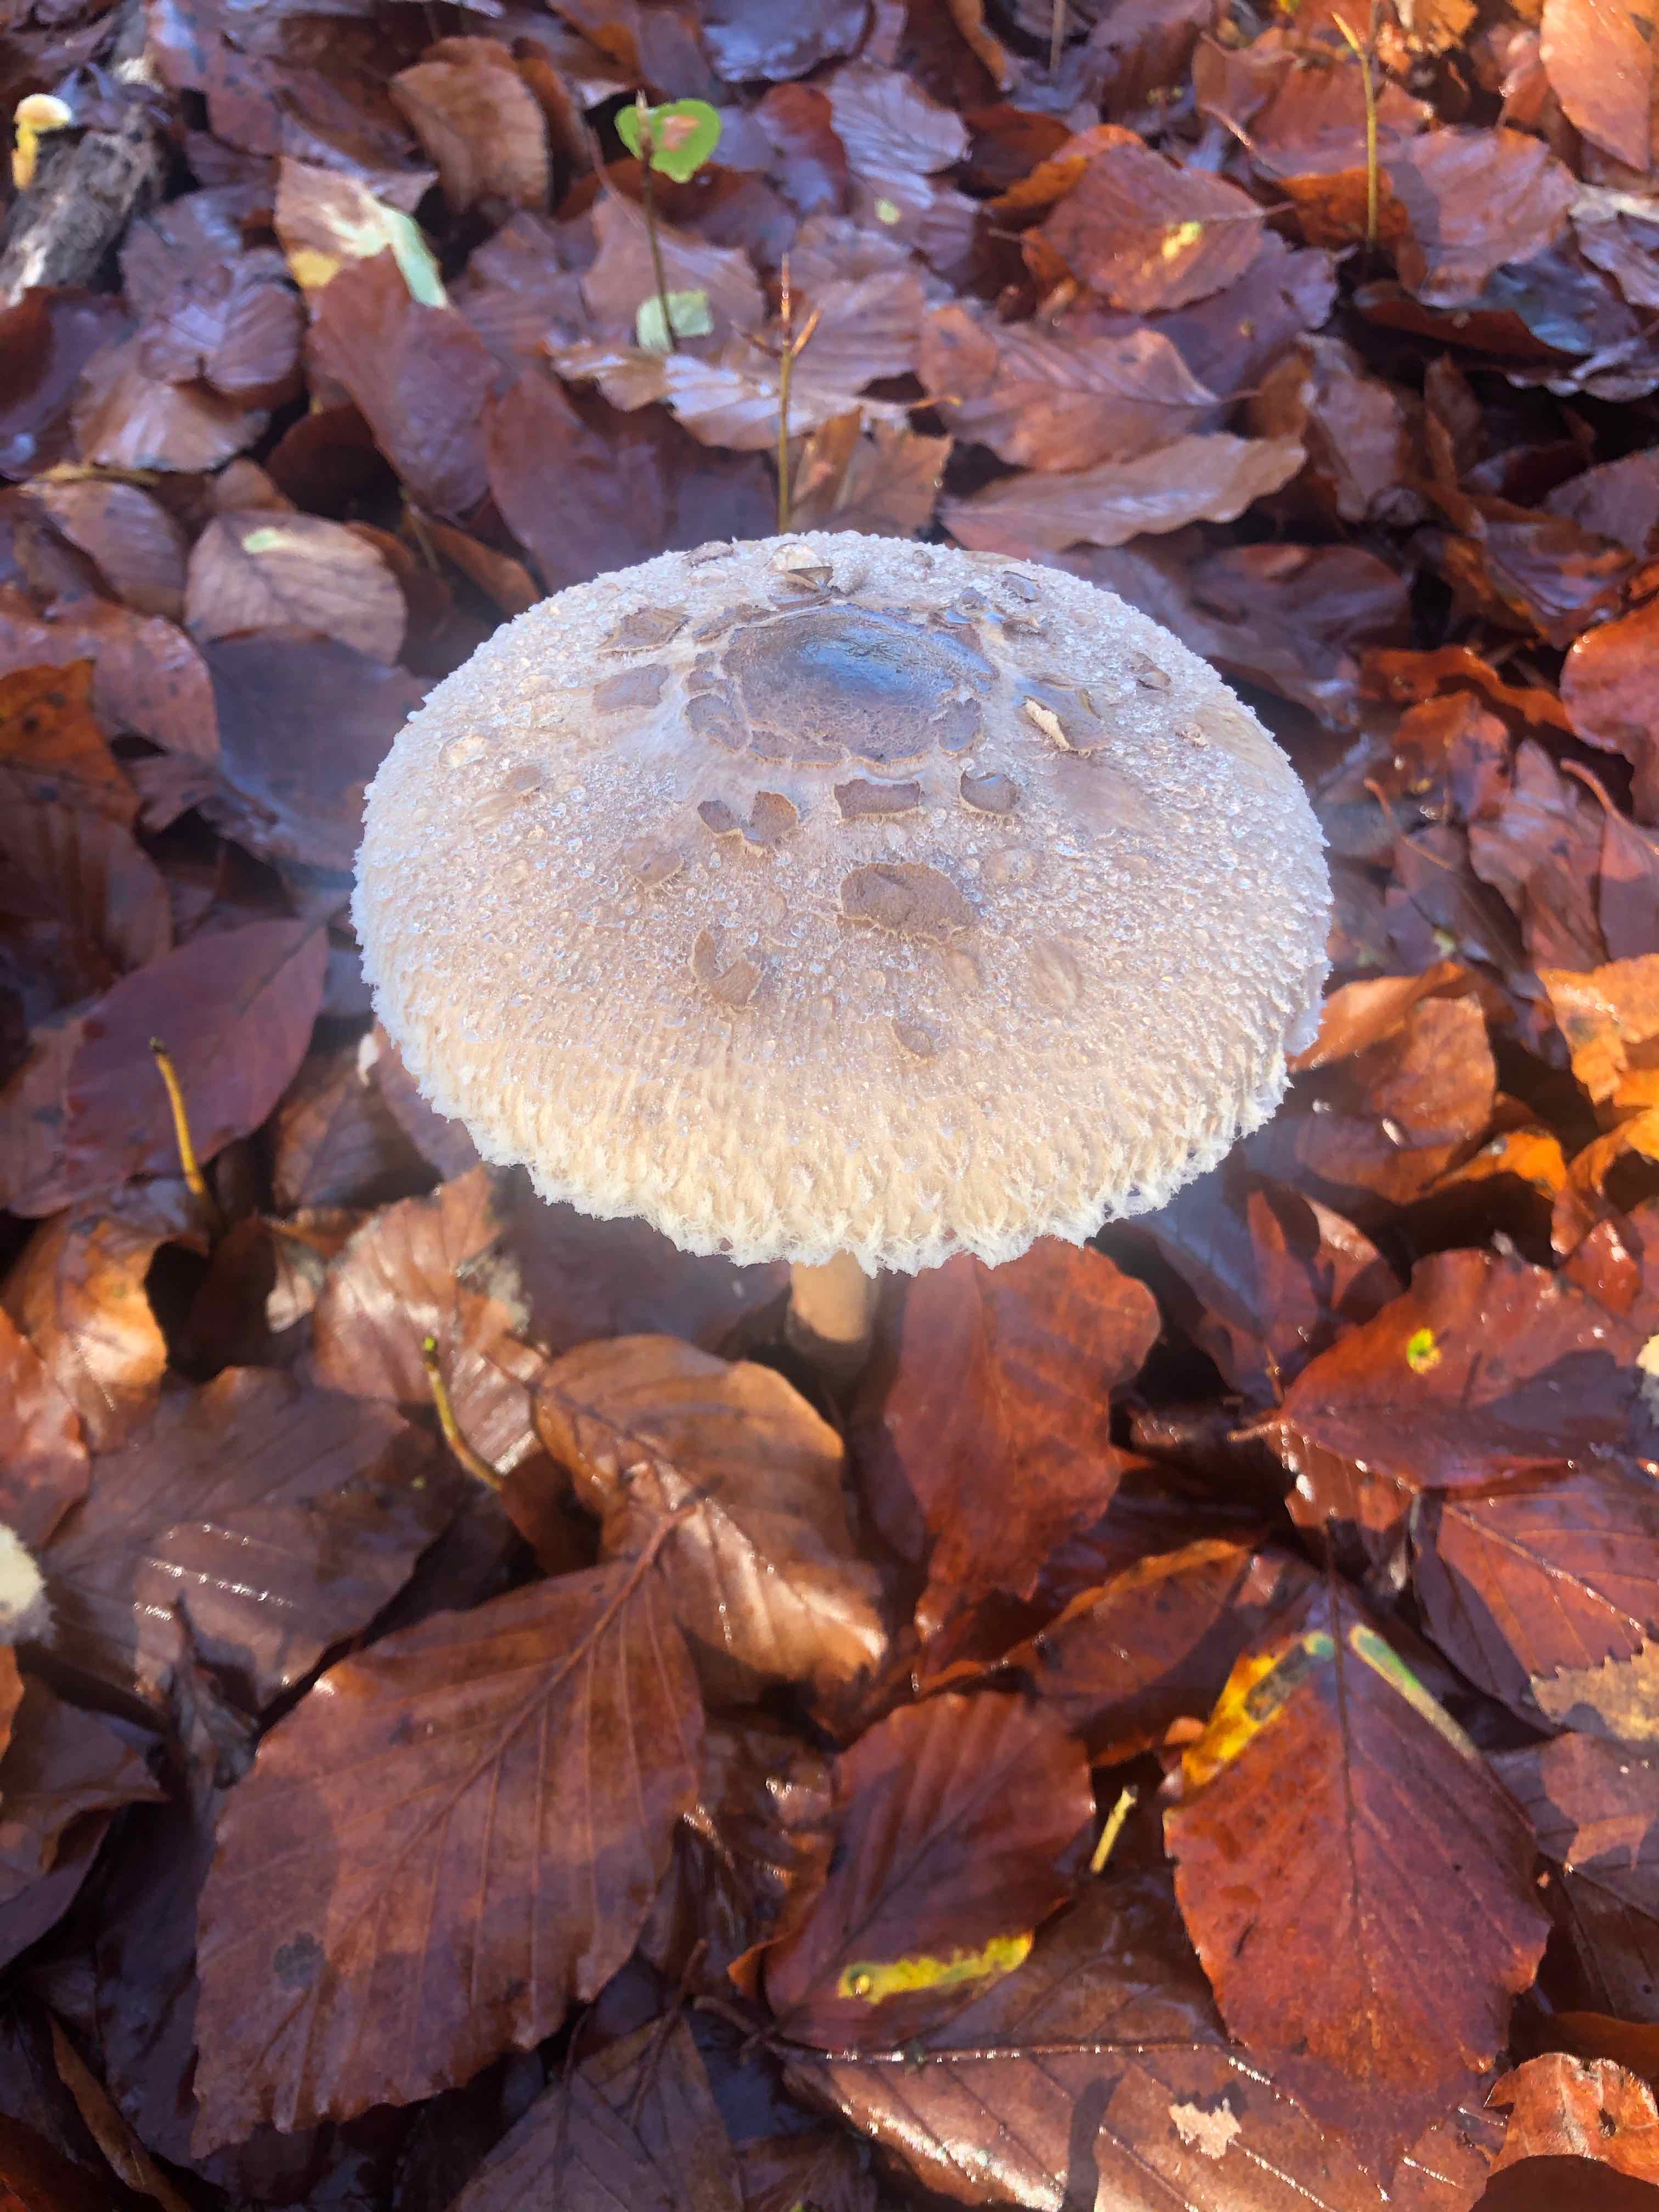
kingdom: Fungi
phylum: Basidiomycota
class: Agaricomycetes
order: Agaricales
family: Agaricaceae
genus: Macrolepiota
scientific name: Macrolepiota mastoidea
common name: puklet kæmpeparasolhat
